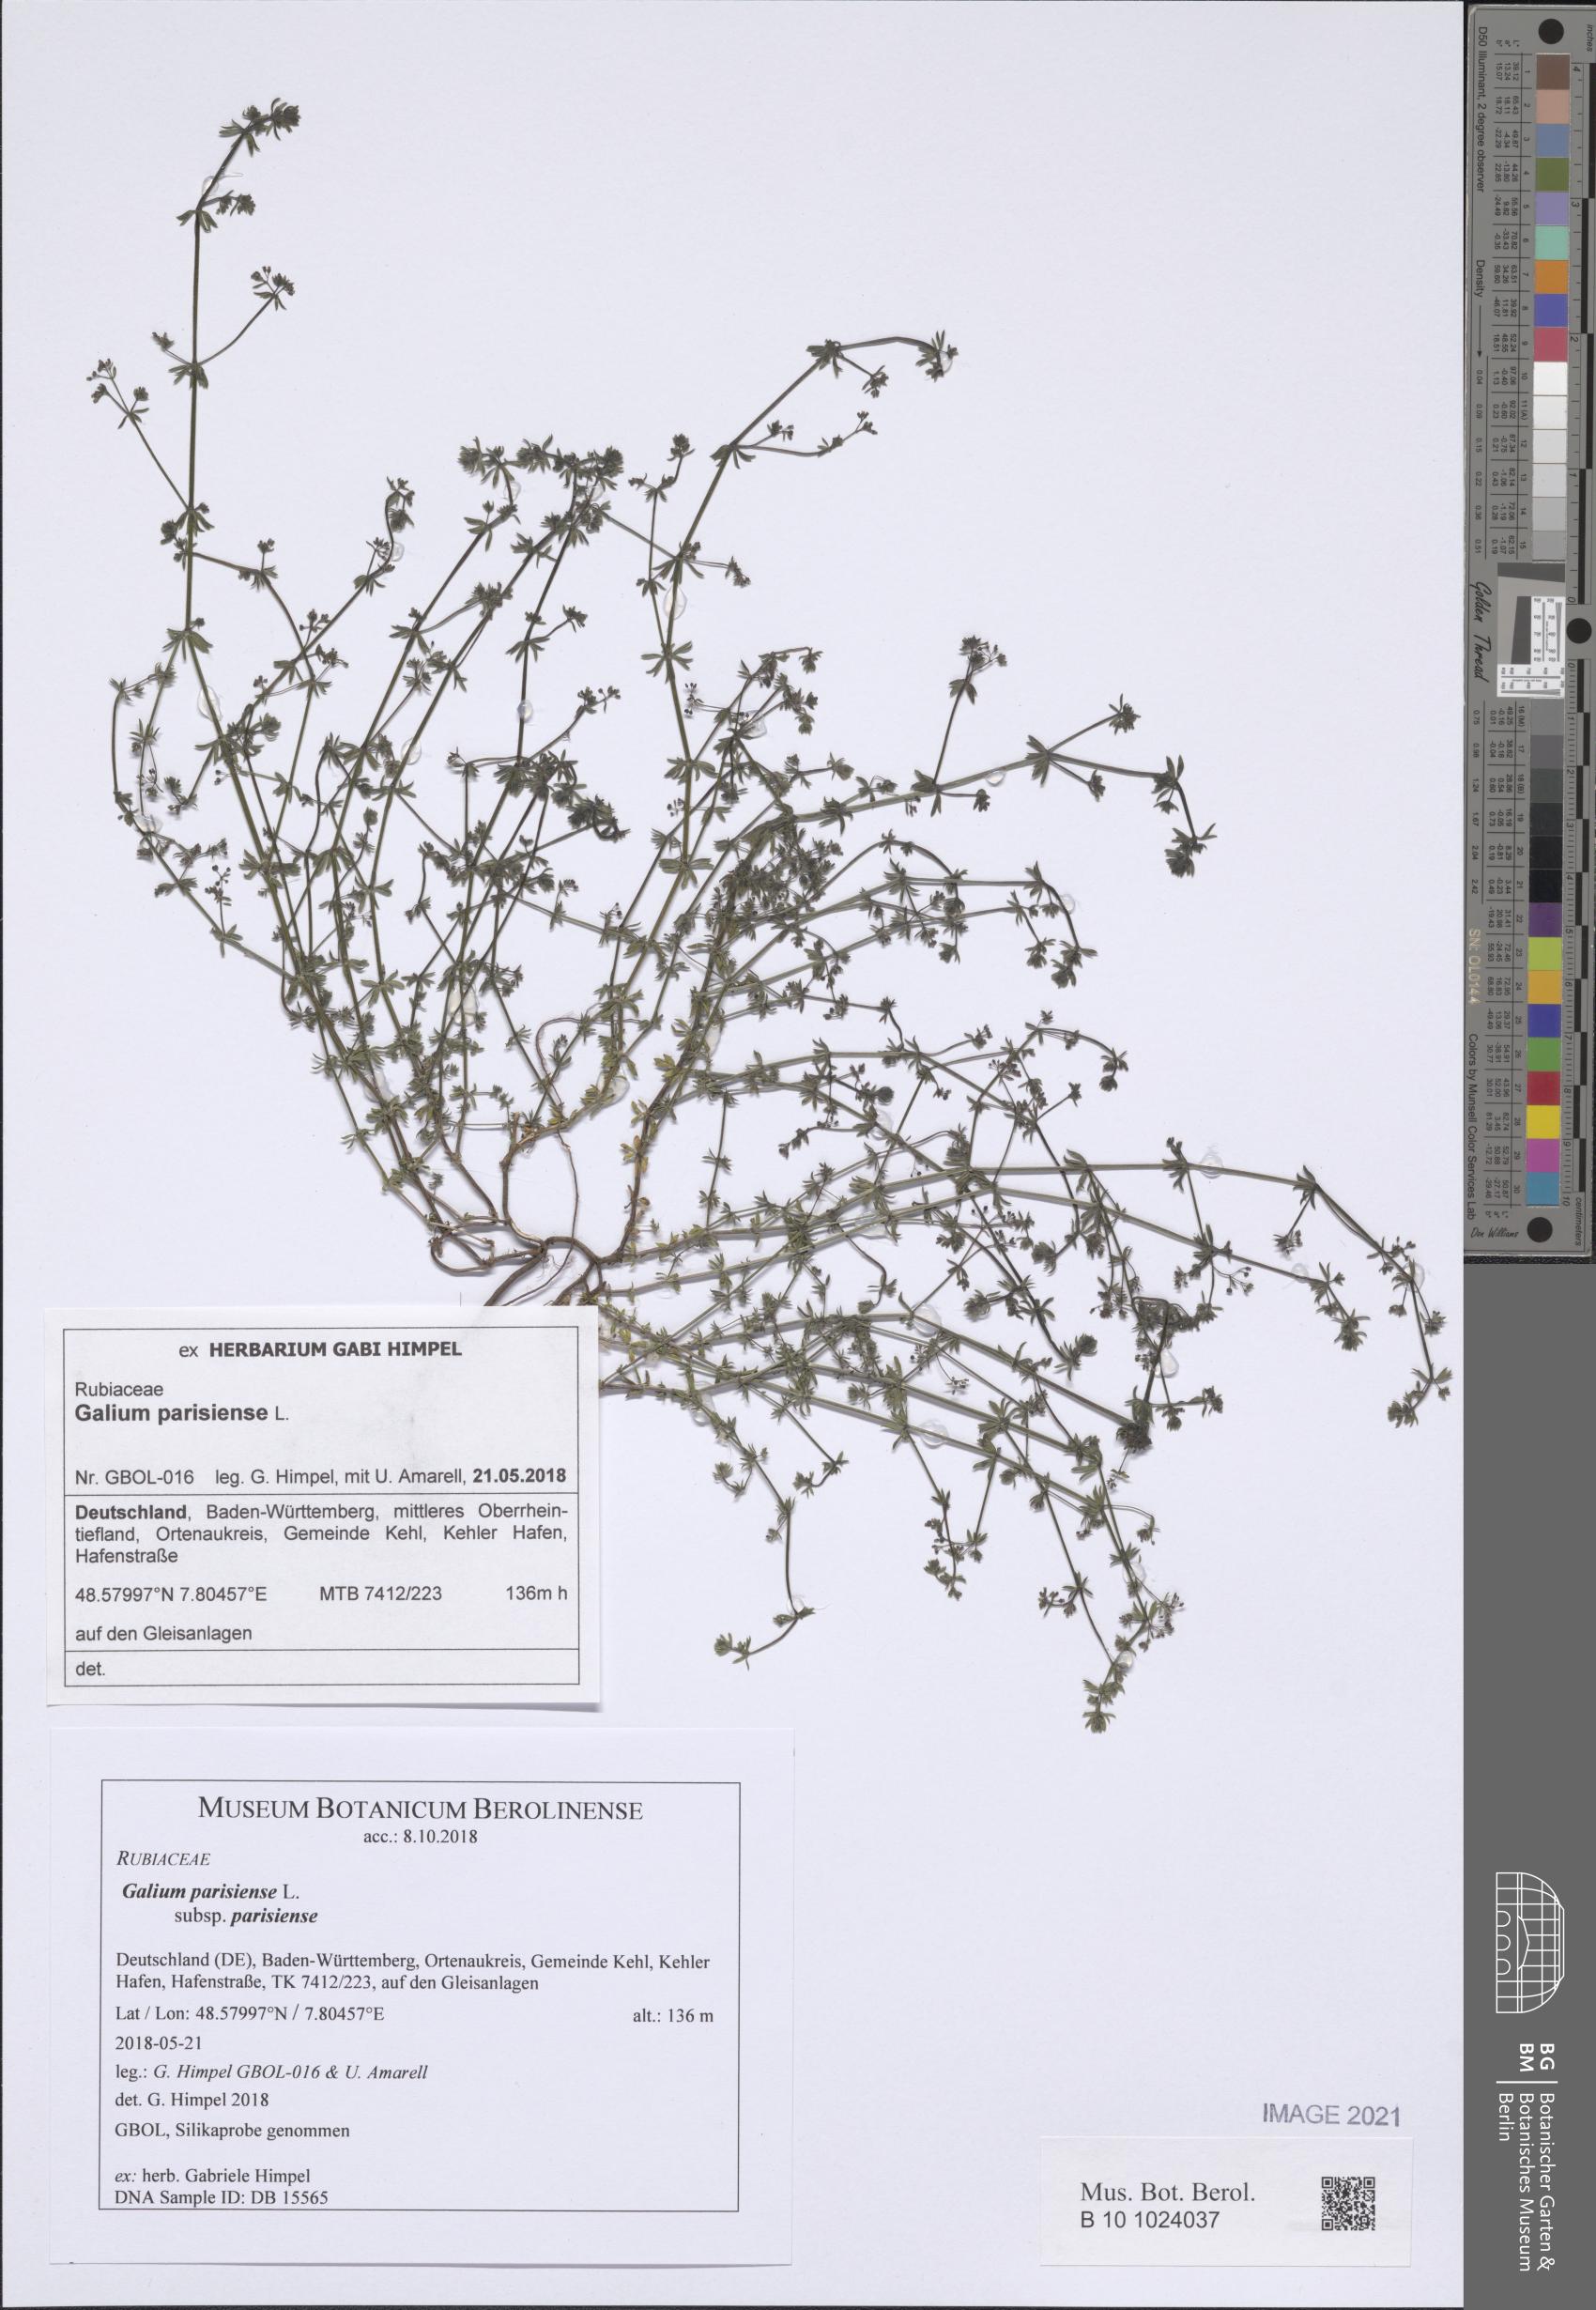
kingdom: Plantae
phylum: Tracheophyta
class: Magnoliopsida
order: Gentianales
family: Rubiaceae
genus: Galium
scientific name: Galium parisiense
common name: Wall bedstraw
